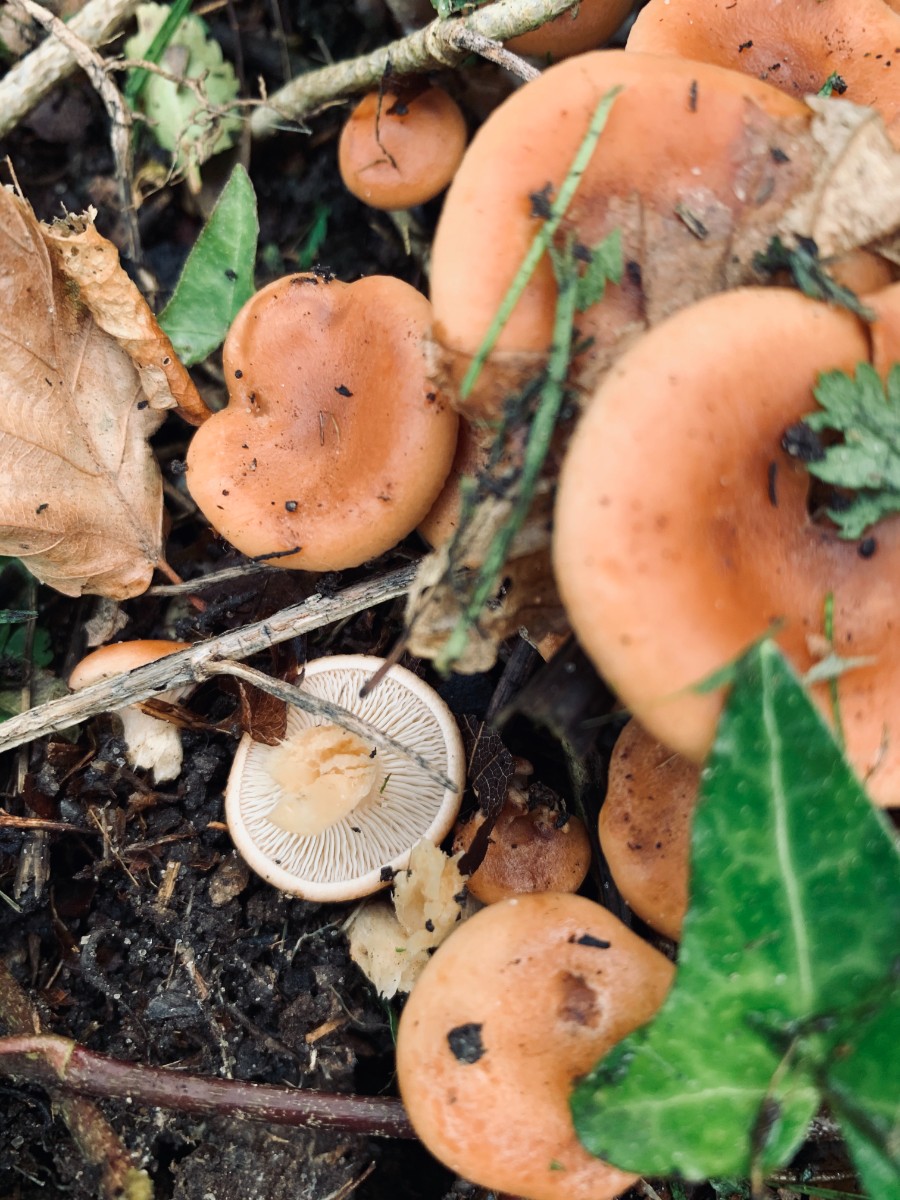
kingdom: Fungi
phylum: Basidiomycota
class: Agaricomycetes
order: Agaricales
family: Tricholomataceae
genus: Paralepista
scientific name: Paralepista flaccida
